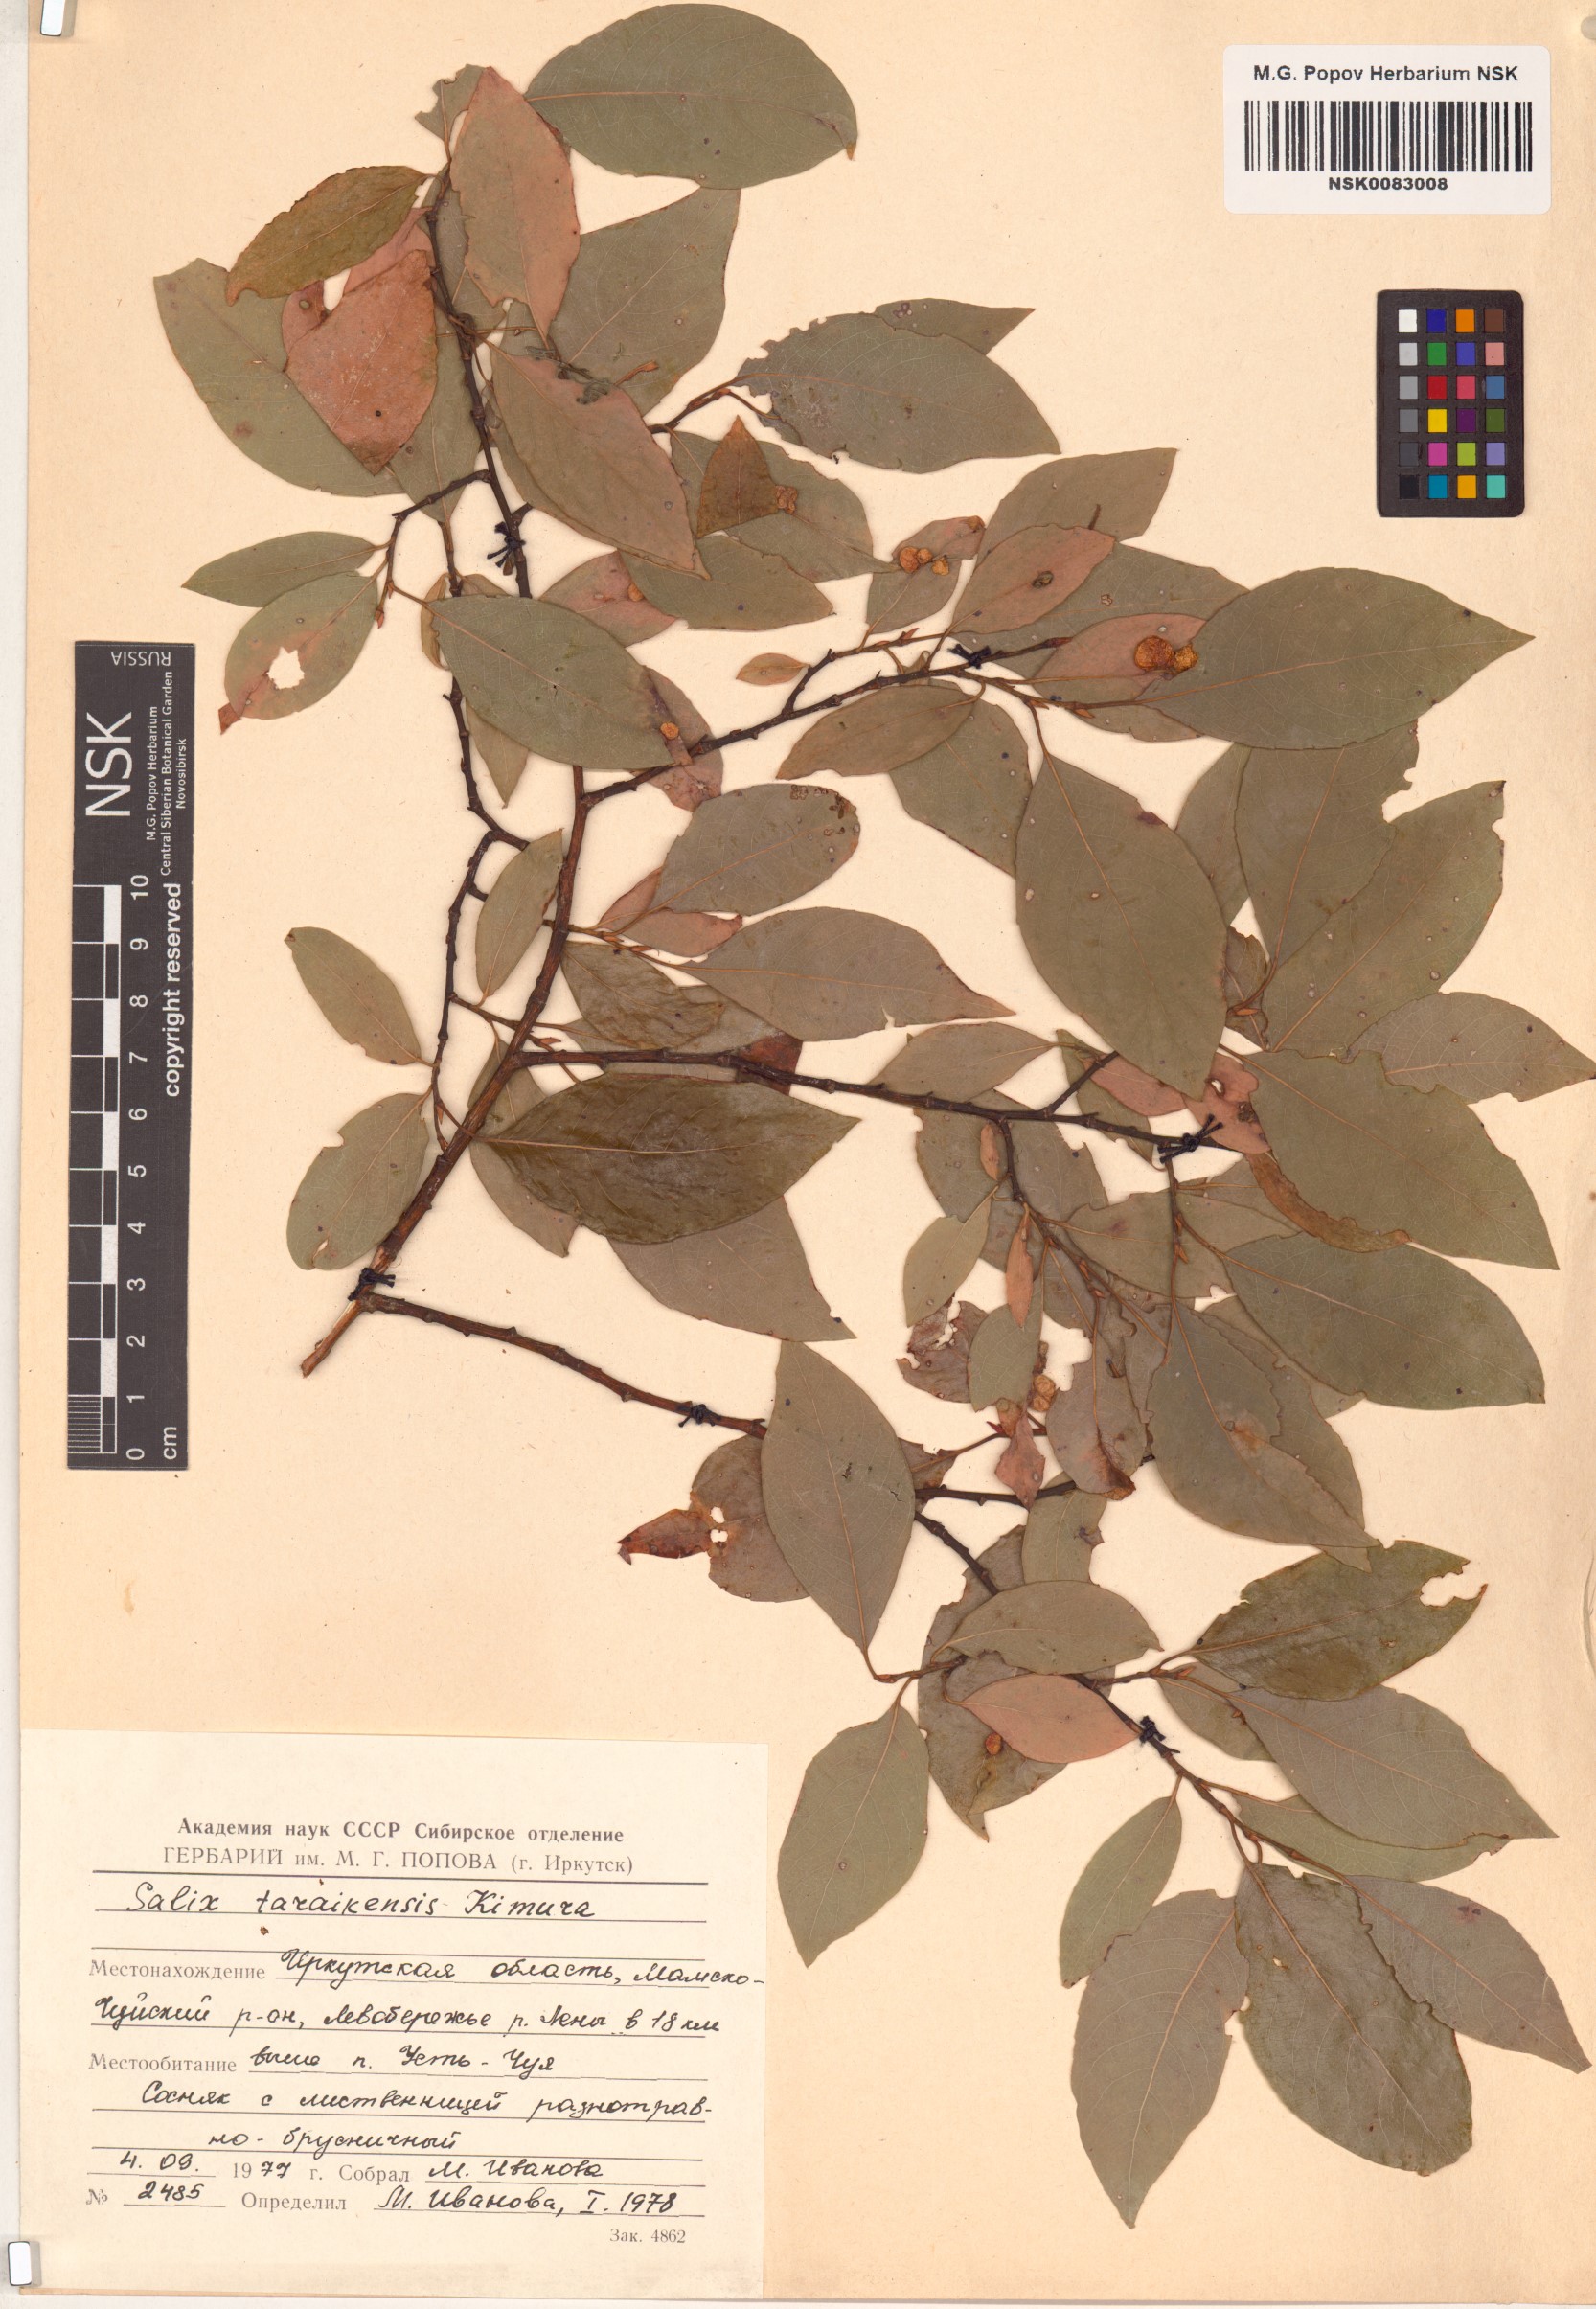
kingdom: Plantae
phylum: Tracheophyta
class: Magnoliopsida
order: Malpighiales
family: Salicaceae
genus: Salix
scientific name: Salix taraikensis
